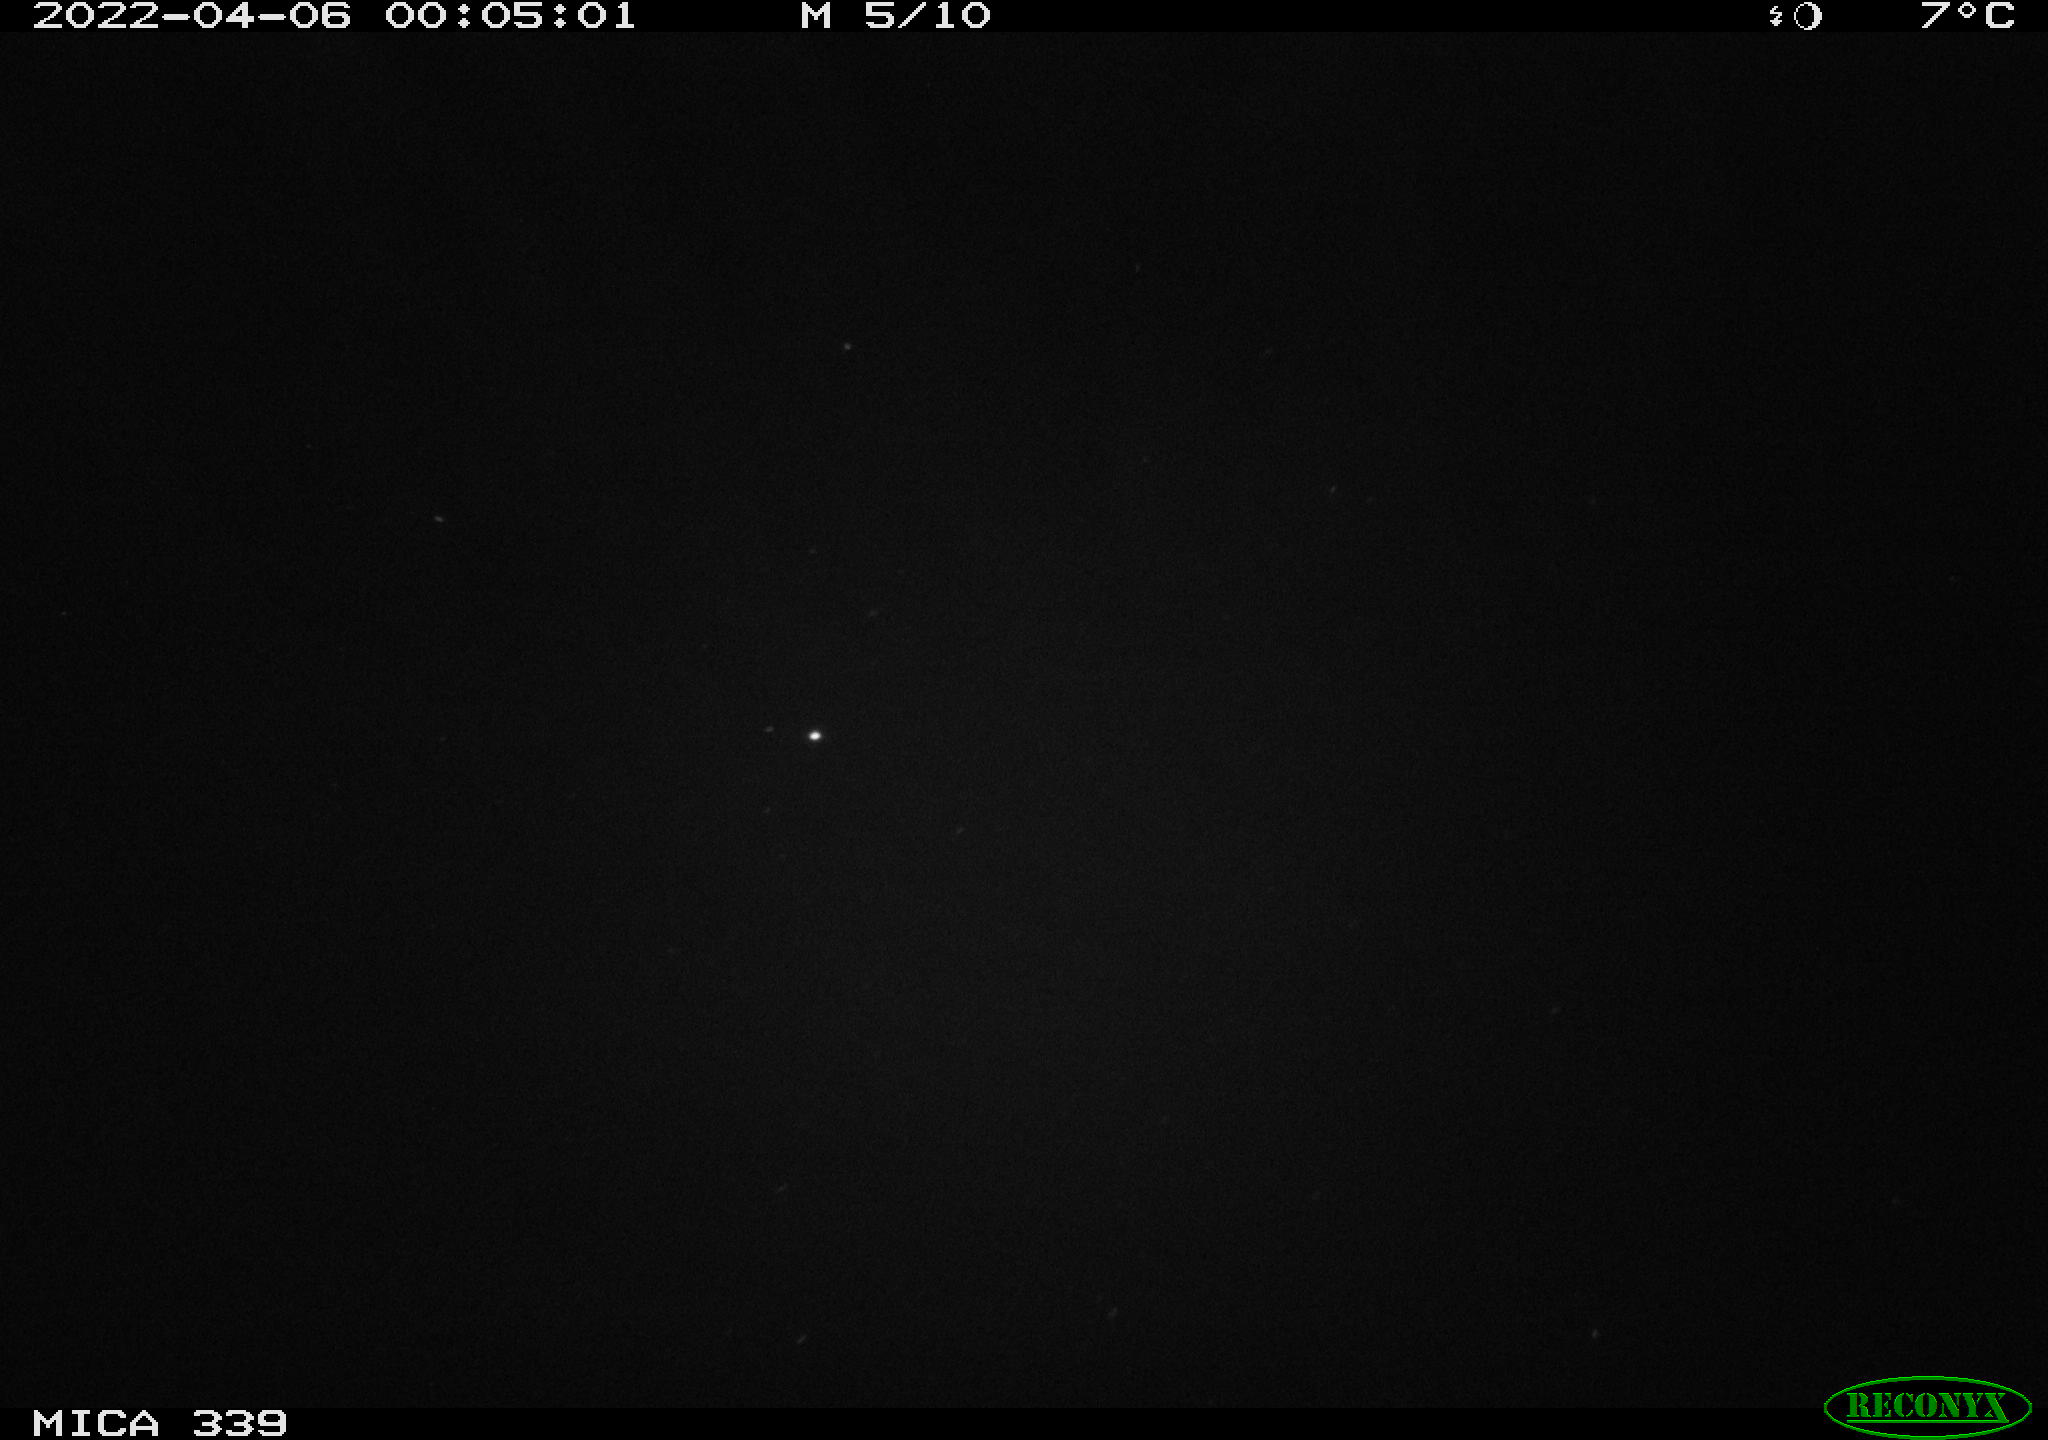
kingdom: Animalia
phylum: Chordata
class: Mammalia
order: Rodentia
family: Muridae
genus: Rattus
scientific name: Rattus norvegicus
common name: Brown rat
